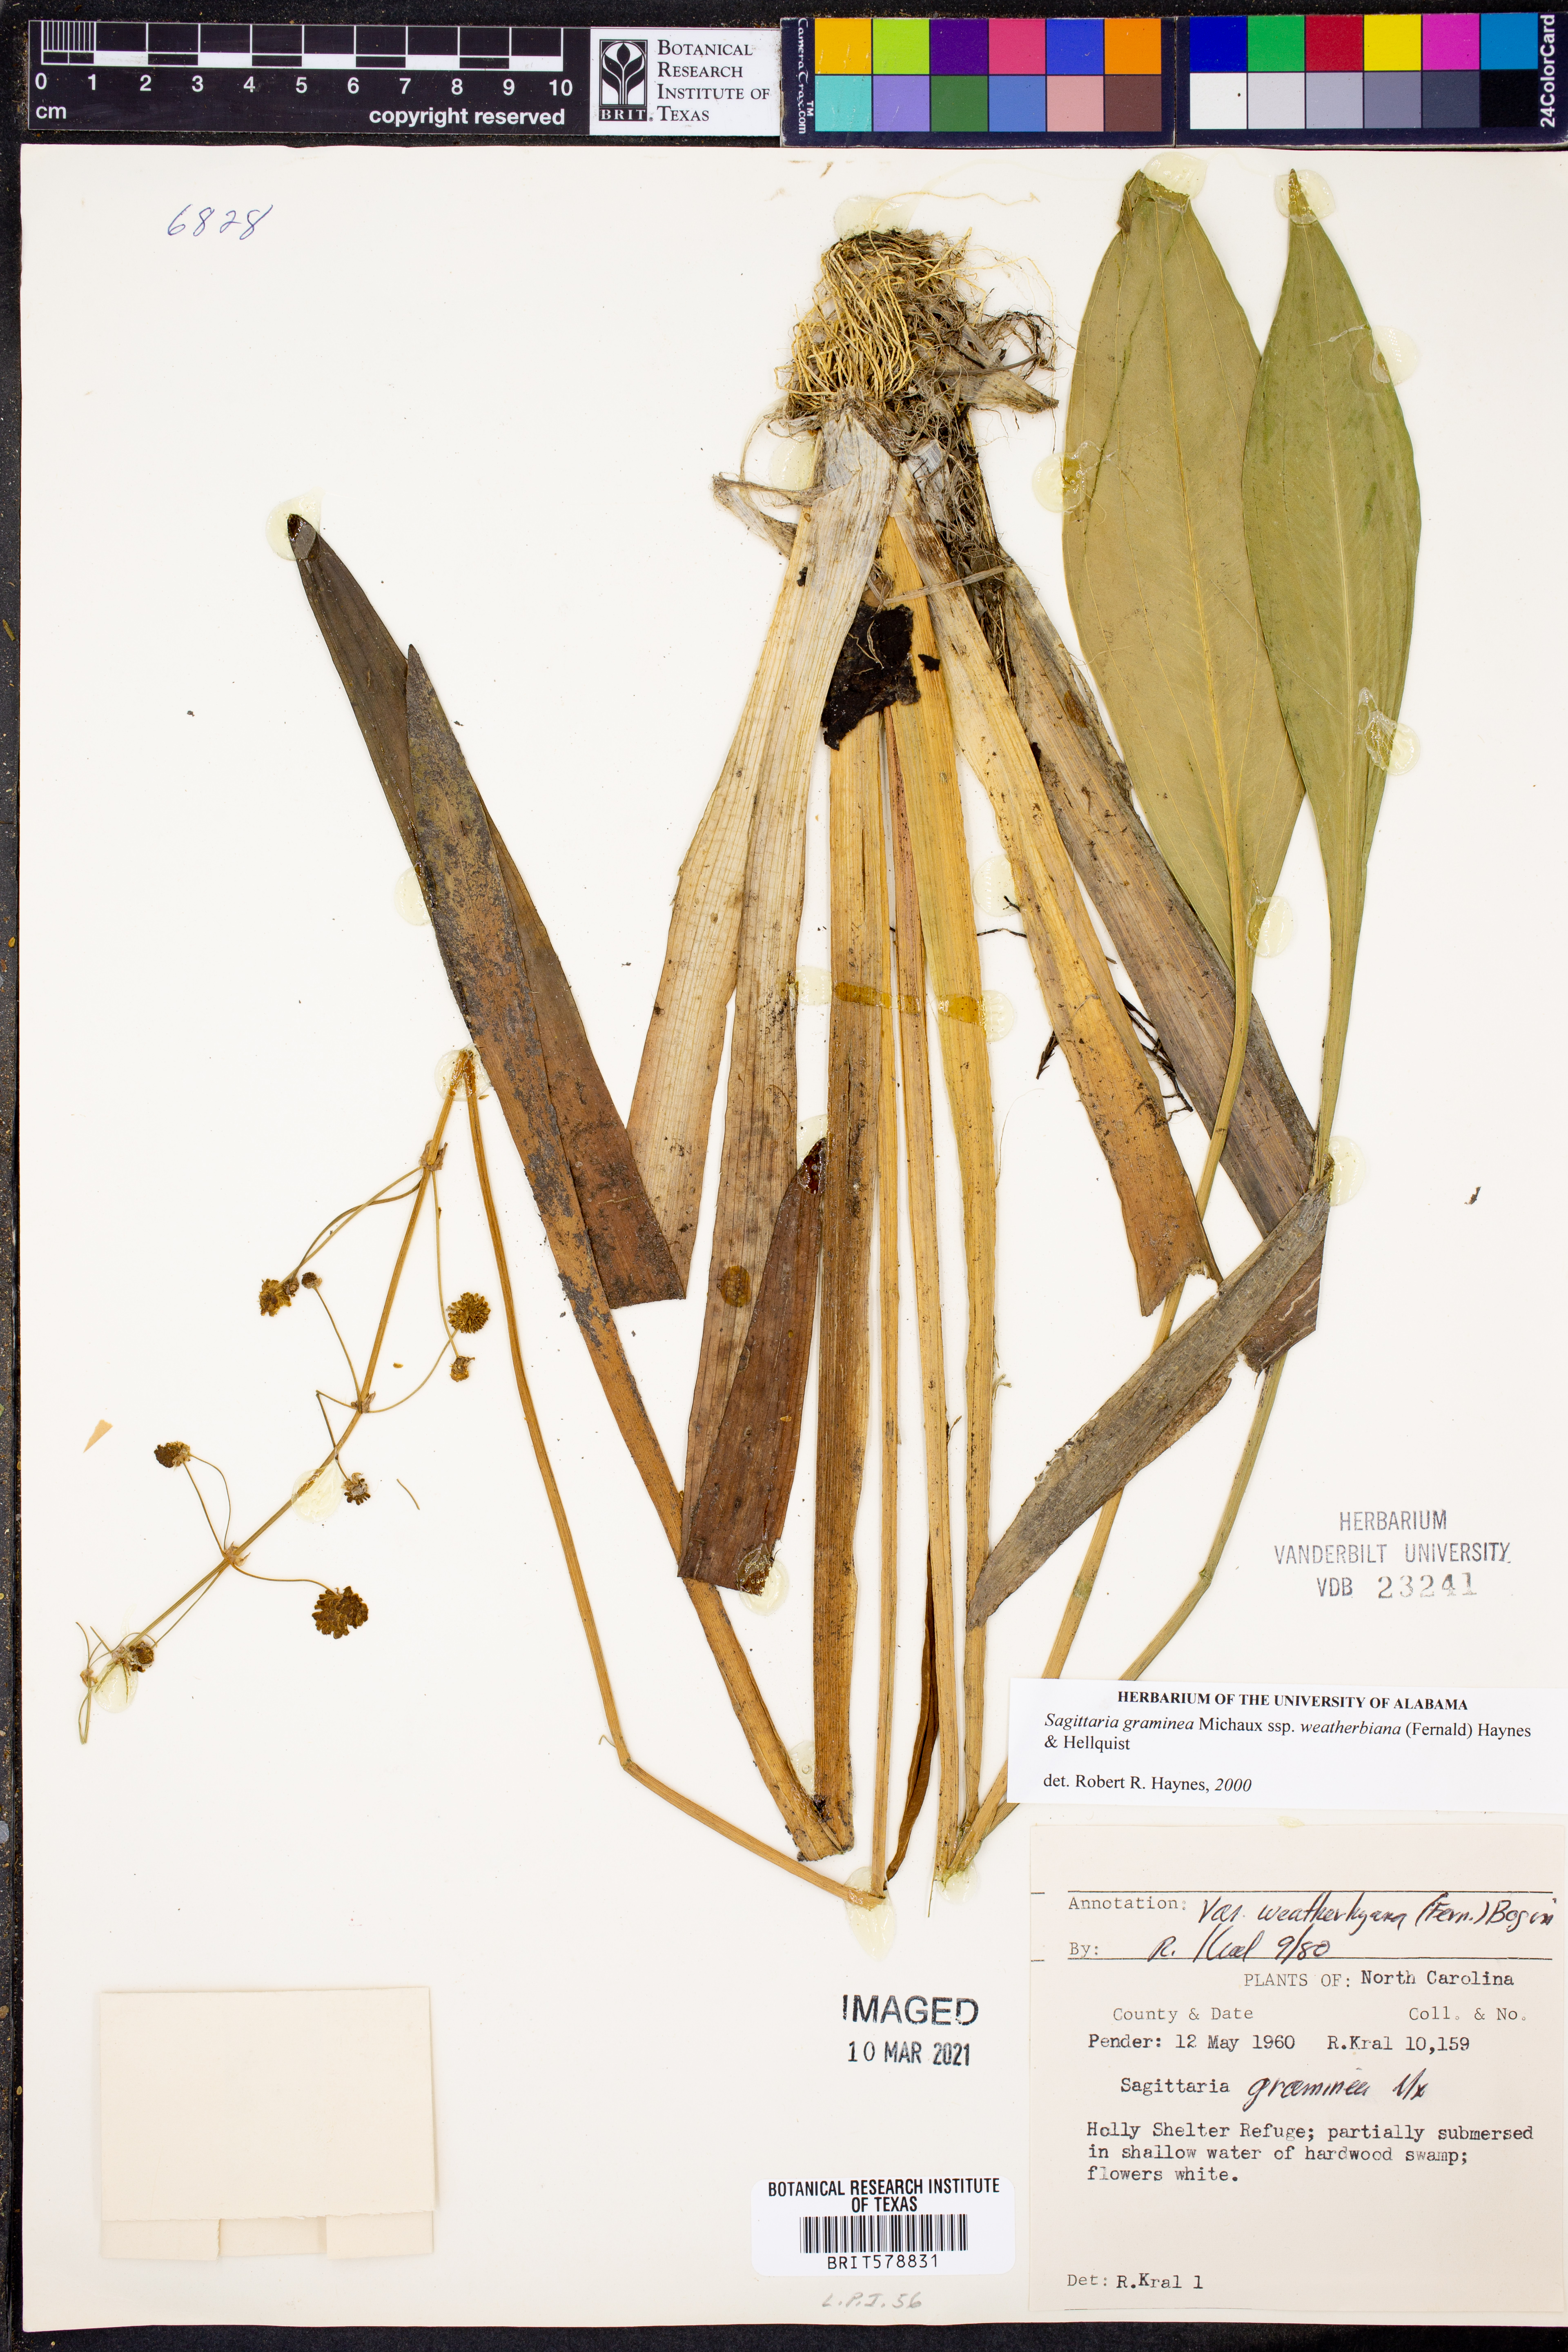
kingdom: Plantae
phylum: Tracheophyta
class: Liliopsida
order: Alismatales
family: Alismataceae
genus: Sagittaria
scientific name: Sagittaria graminea
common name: Grass-leaved arrowhead
